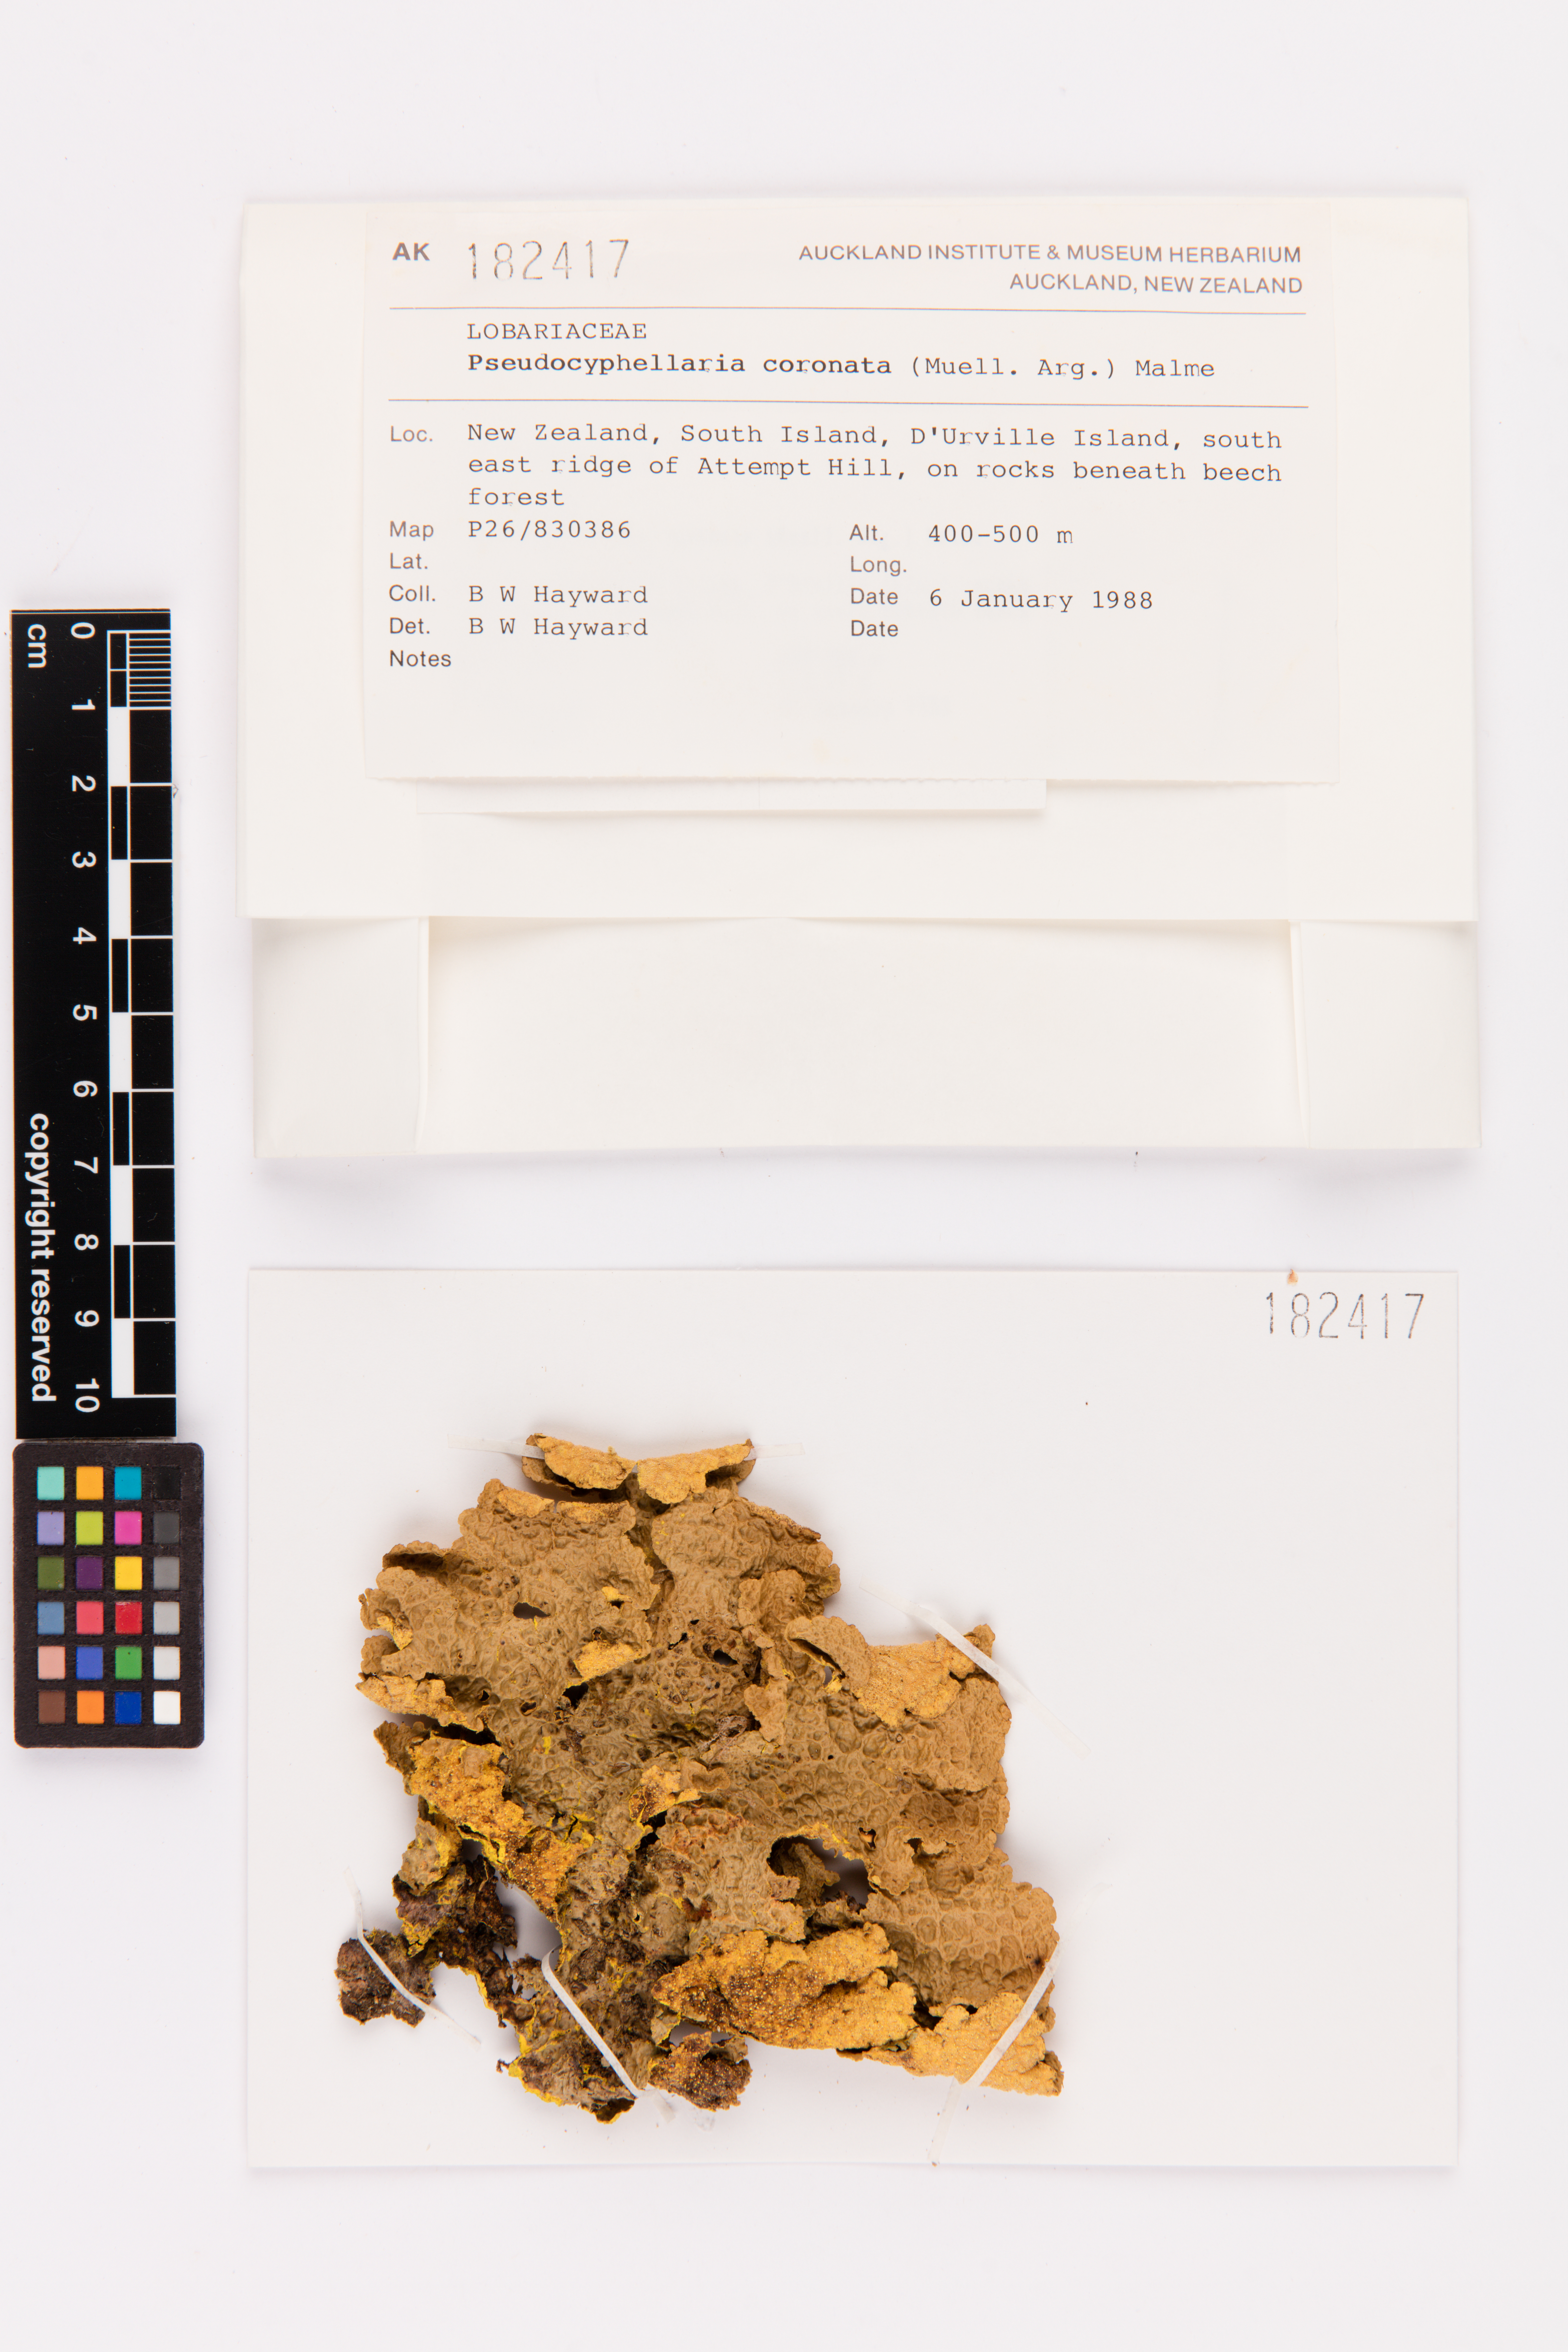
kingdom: Fungi
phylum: Ascomycota
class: Lecanoromycetes
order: Peltigerales
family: Lobariaceae
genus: Yarrumia
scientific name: Yarrumia coronata
